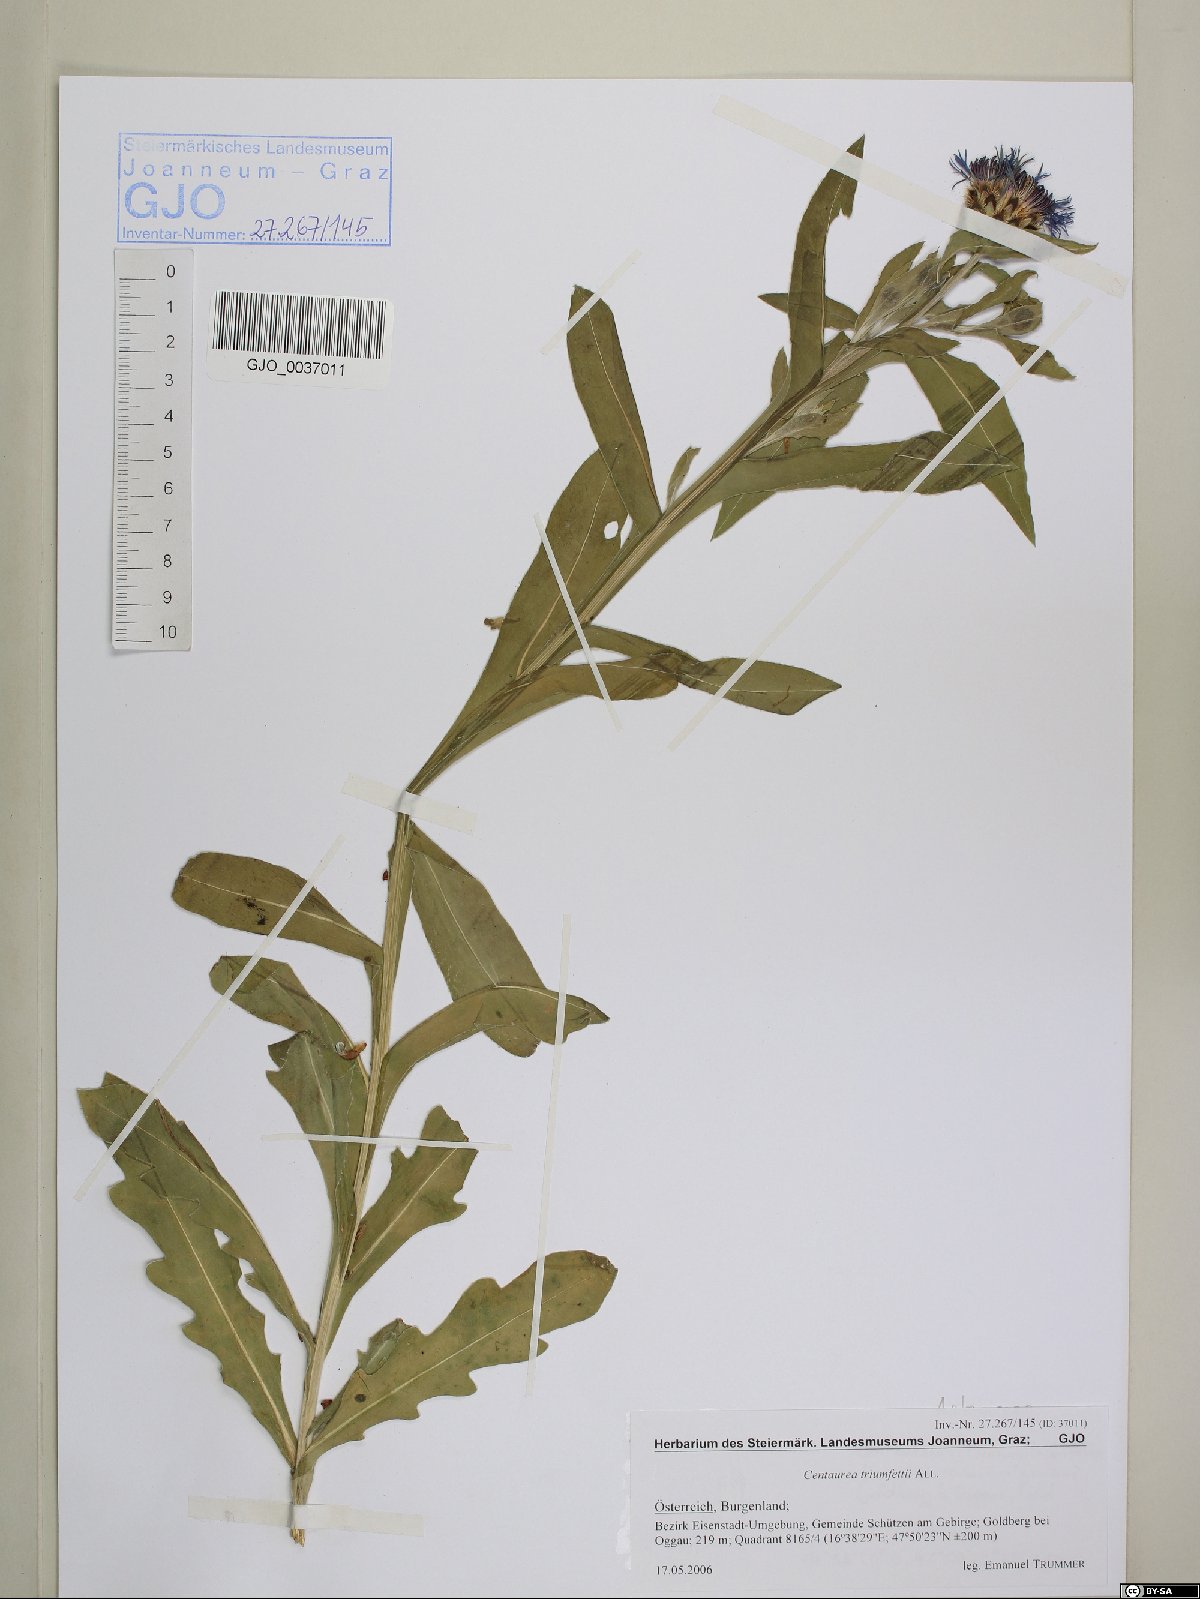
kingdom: Plantae
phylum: Tracheophyta
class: Magnoliopsida
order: Asterales
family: Asteraceae
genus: Centaurea
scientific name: Centaurea triumfettii
